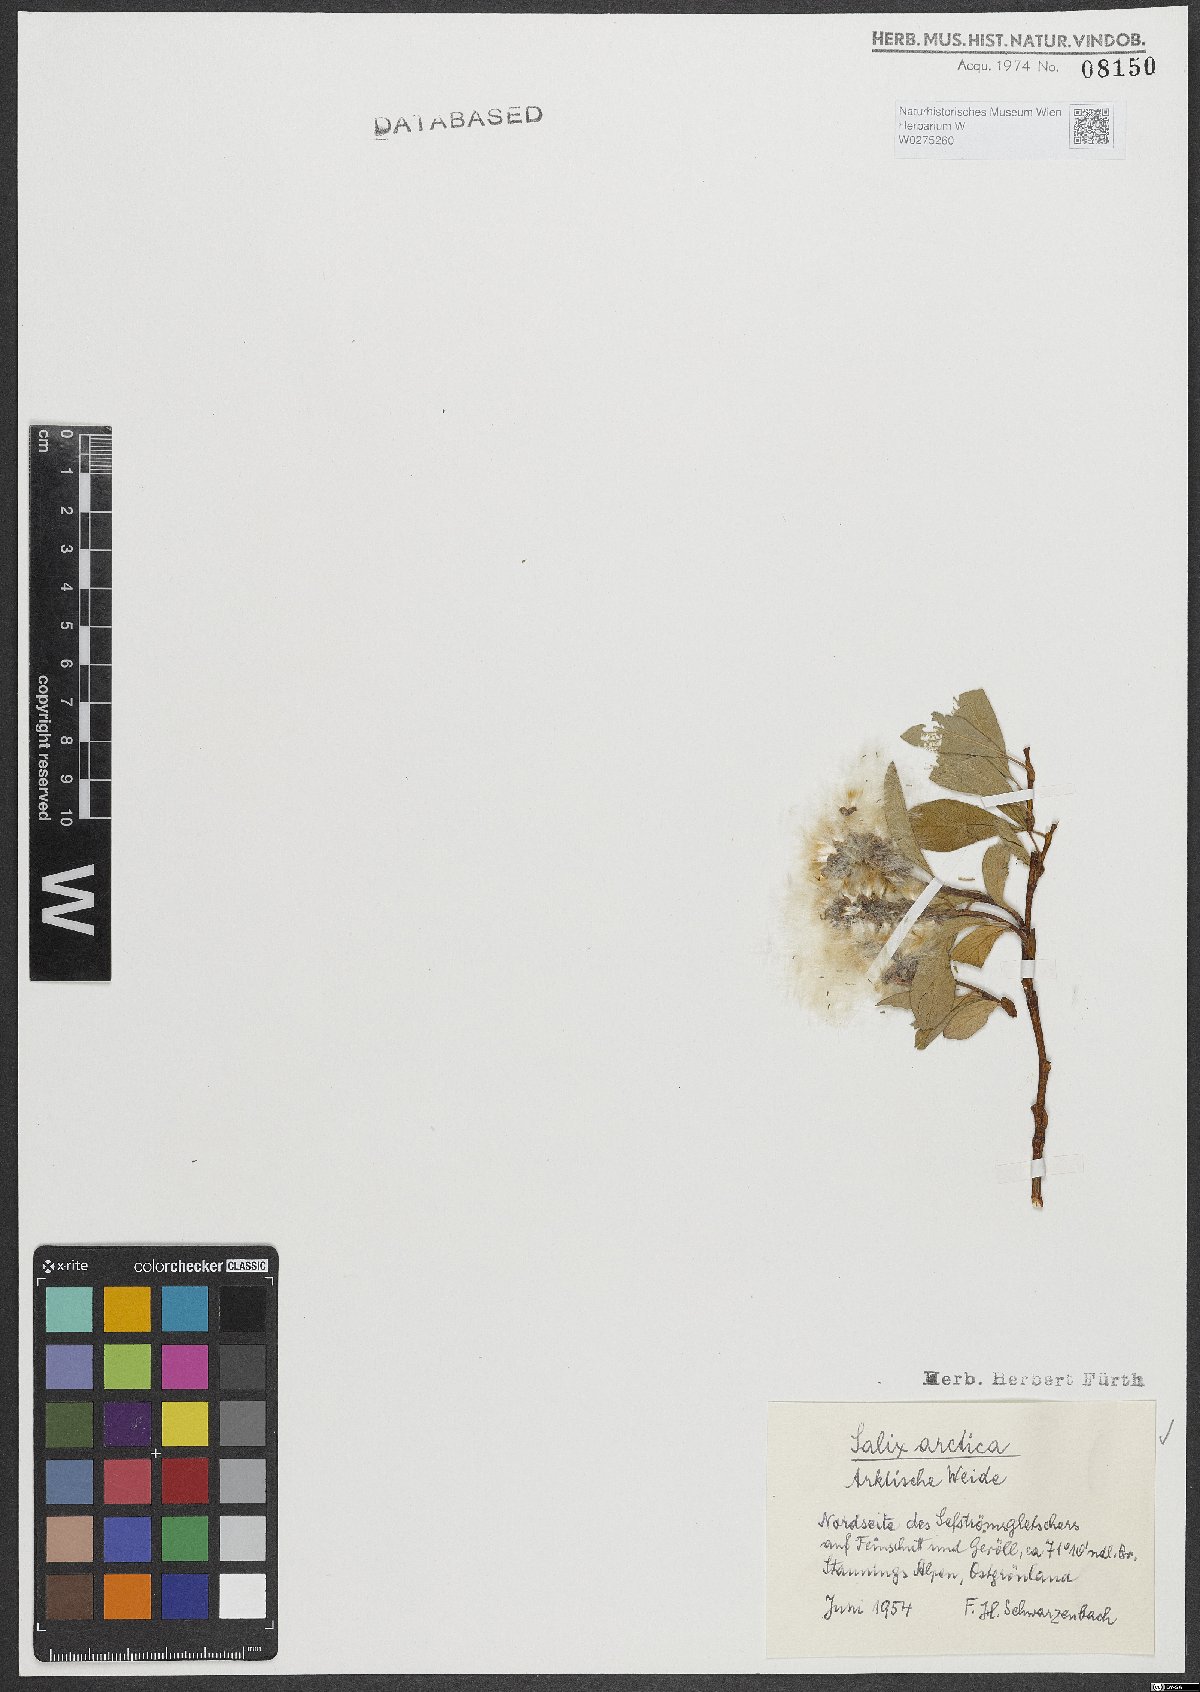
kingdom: Plantae
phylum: Tracheophyta
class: Magnoliopsida
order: Malpighiales
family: Salicaceae
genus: Salix
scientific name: Salix arctica
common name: Arctic willow
